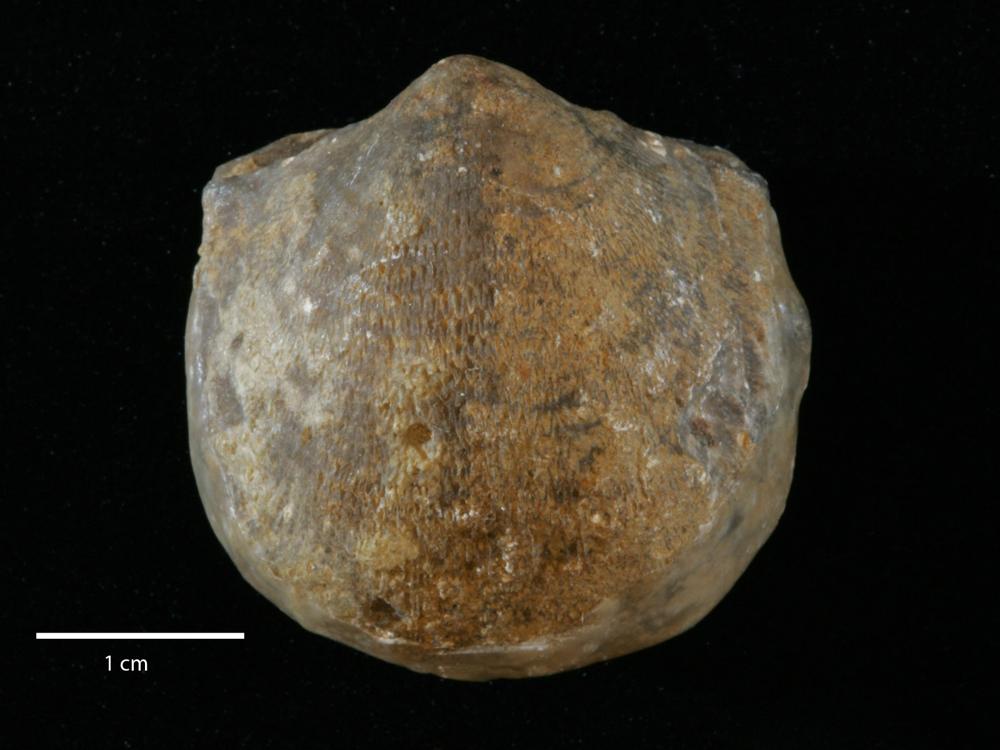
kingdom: Animalia
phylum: Brachiopoda
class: Rhynchonellata
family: Clitambonitidae
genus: Clitambonites
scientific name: Clitambonites squamatus
